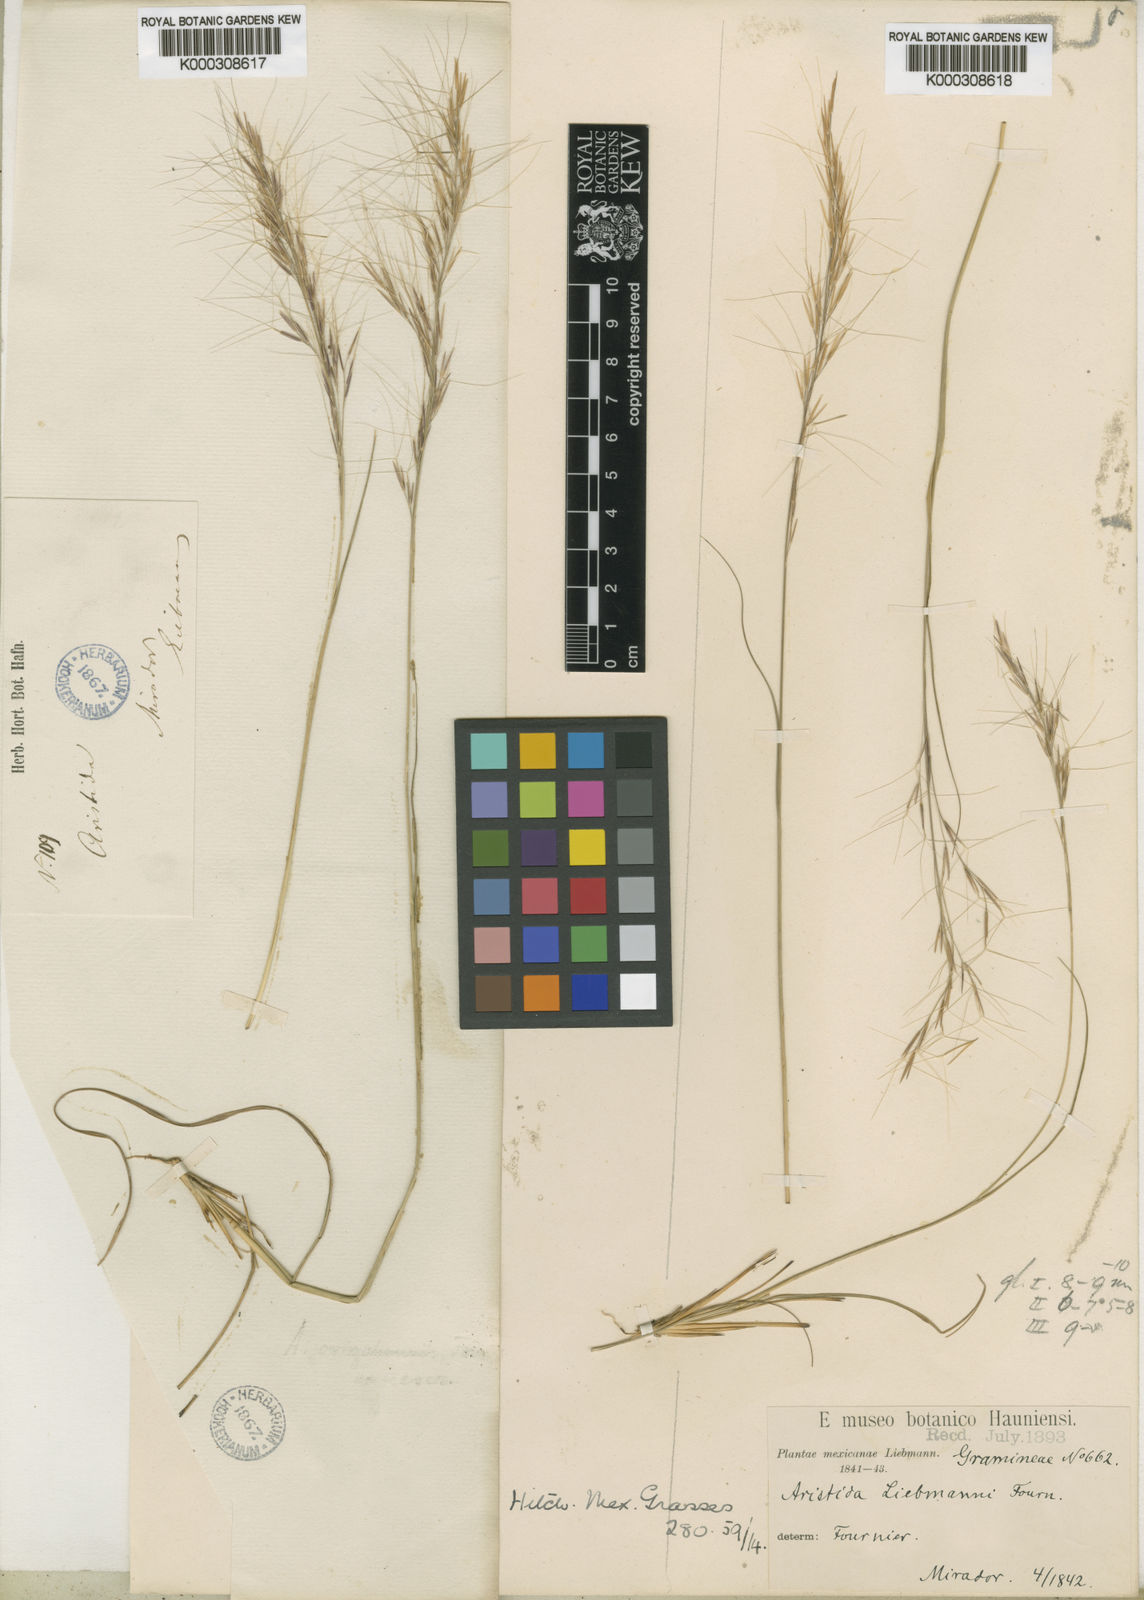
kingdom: Plantae
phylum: Tracheophyta
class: Liliopsida
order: Poales
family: Poaceae
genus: Aristida
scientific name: Aristida liebmannii
